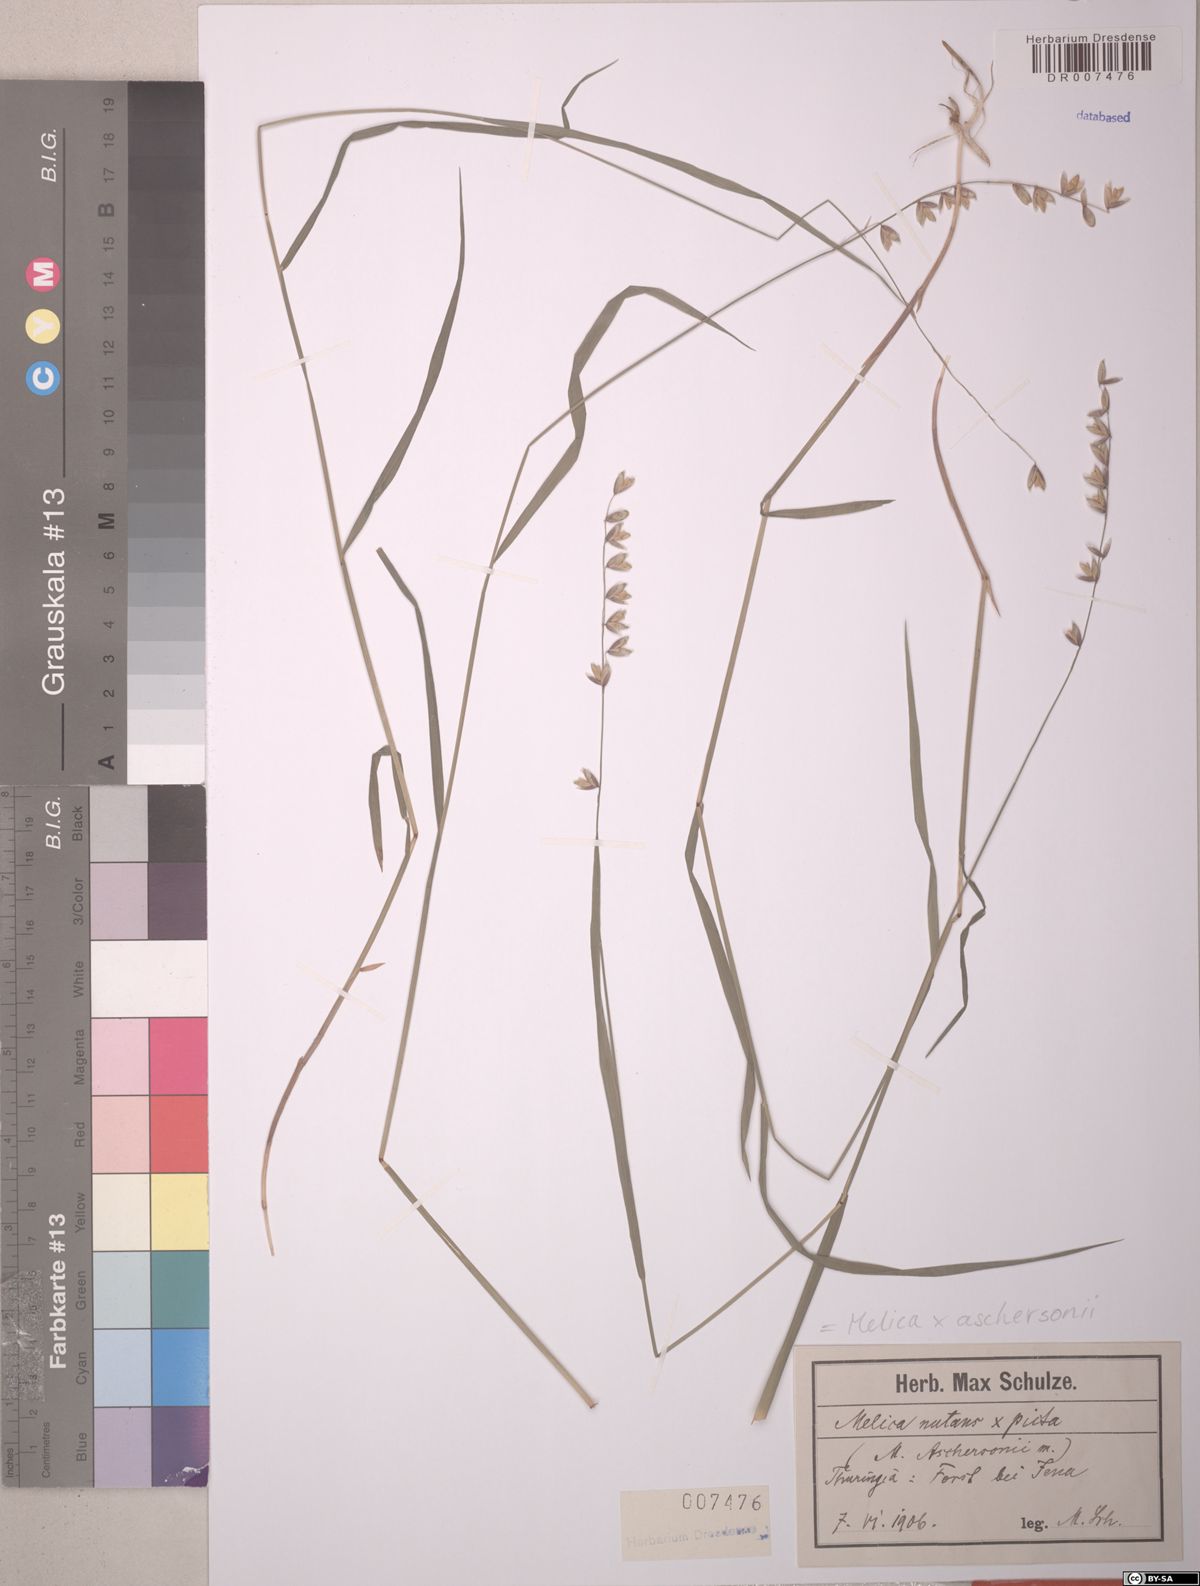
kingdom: Plantae
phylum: Tracheophyta
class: Liliopsida
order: Poales
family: Poaceae
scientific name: Poaceae
